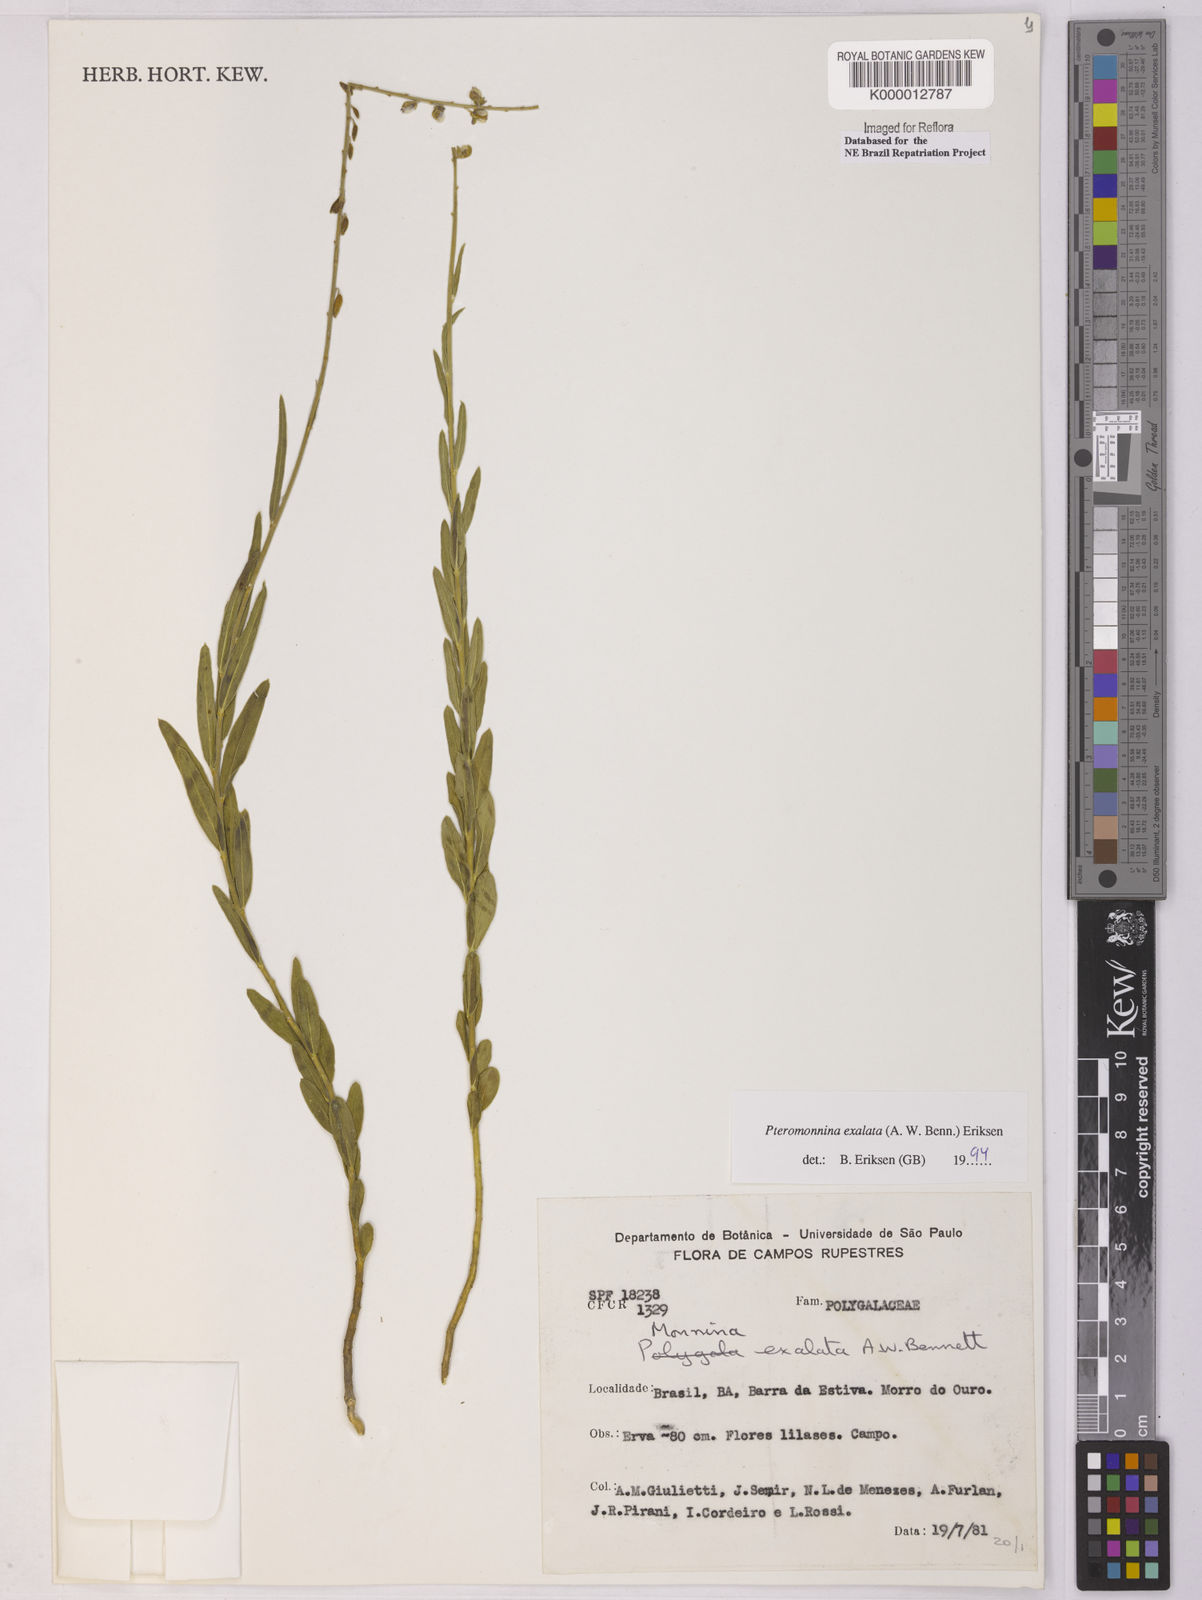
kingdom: Plantae
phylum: Tracheophyta
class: Magnoliopsida
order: Fabales
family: Polygalaceae
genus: Monnina
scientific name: Monnina exalata
